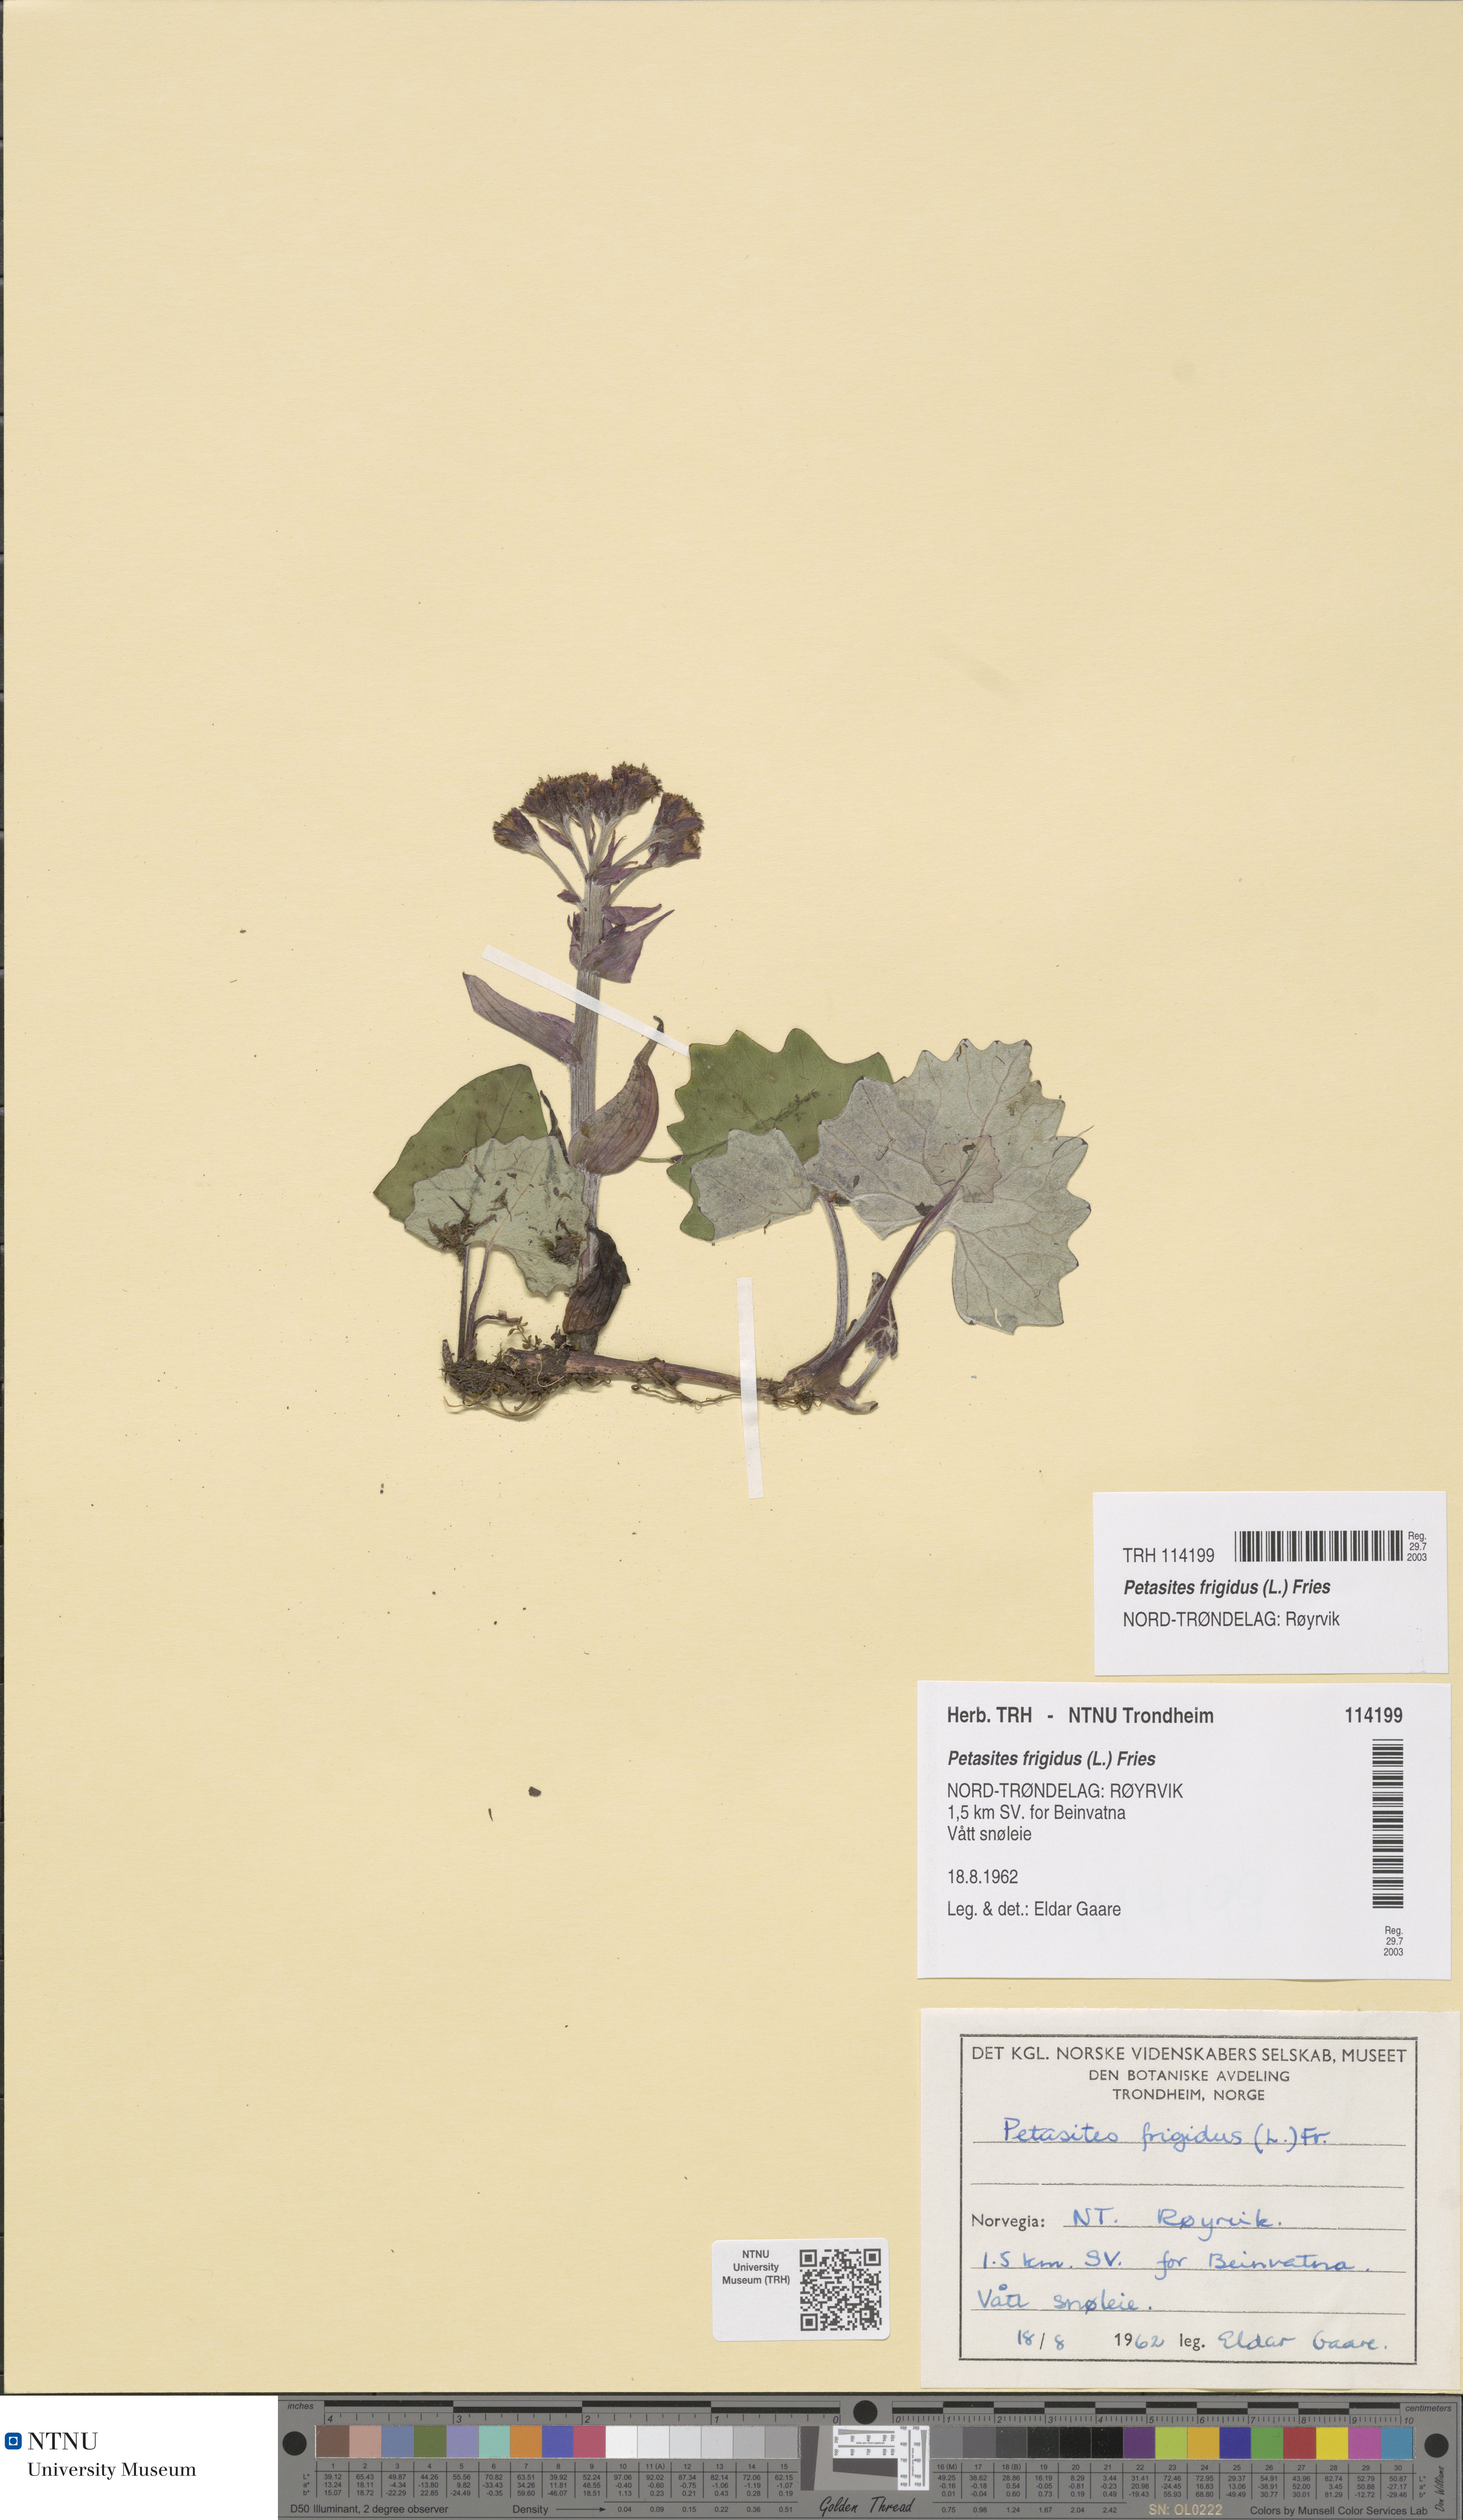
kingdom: Plantae
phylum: Tracheophyta
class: Magnoliopsida
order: Asterales
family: Asteraceae
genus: Petasites
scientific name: Petasites frigidus
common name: Arctic butterbur
